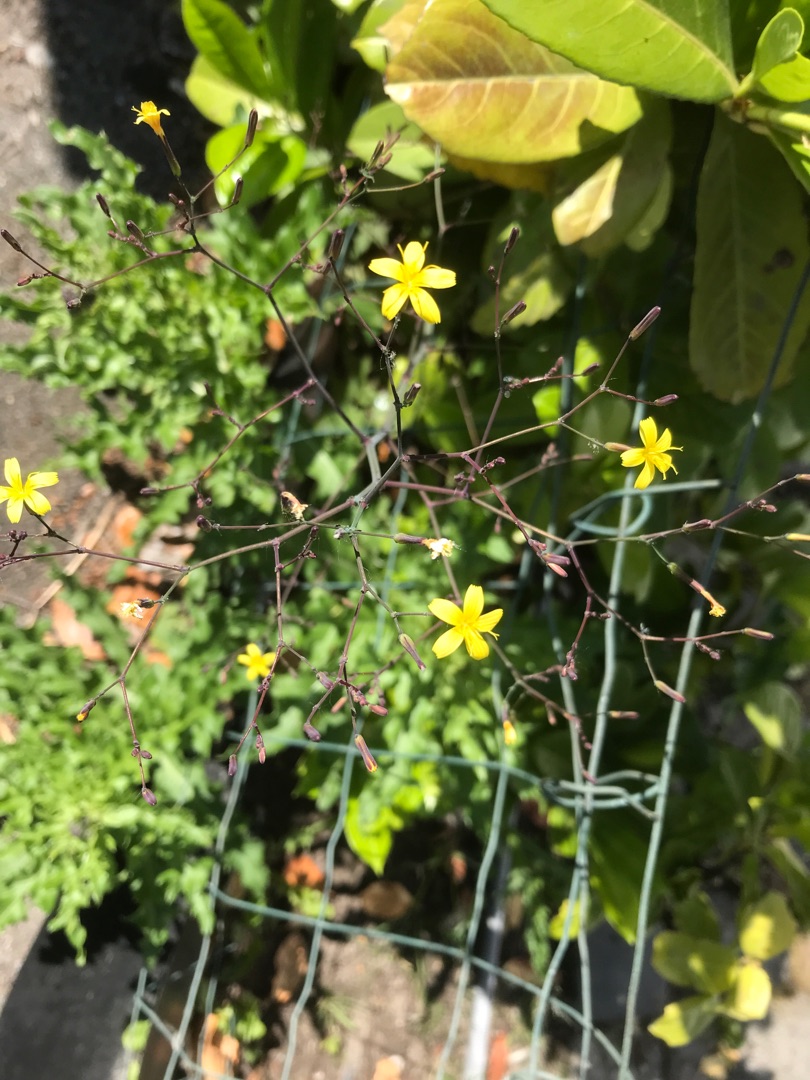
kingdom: Plantae
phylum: Tracheophyta
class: Magnoliopsida
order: Asterales
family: Asteraceae
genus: Mycelis
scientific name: Mycelis muralis
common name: Skov-salat
